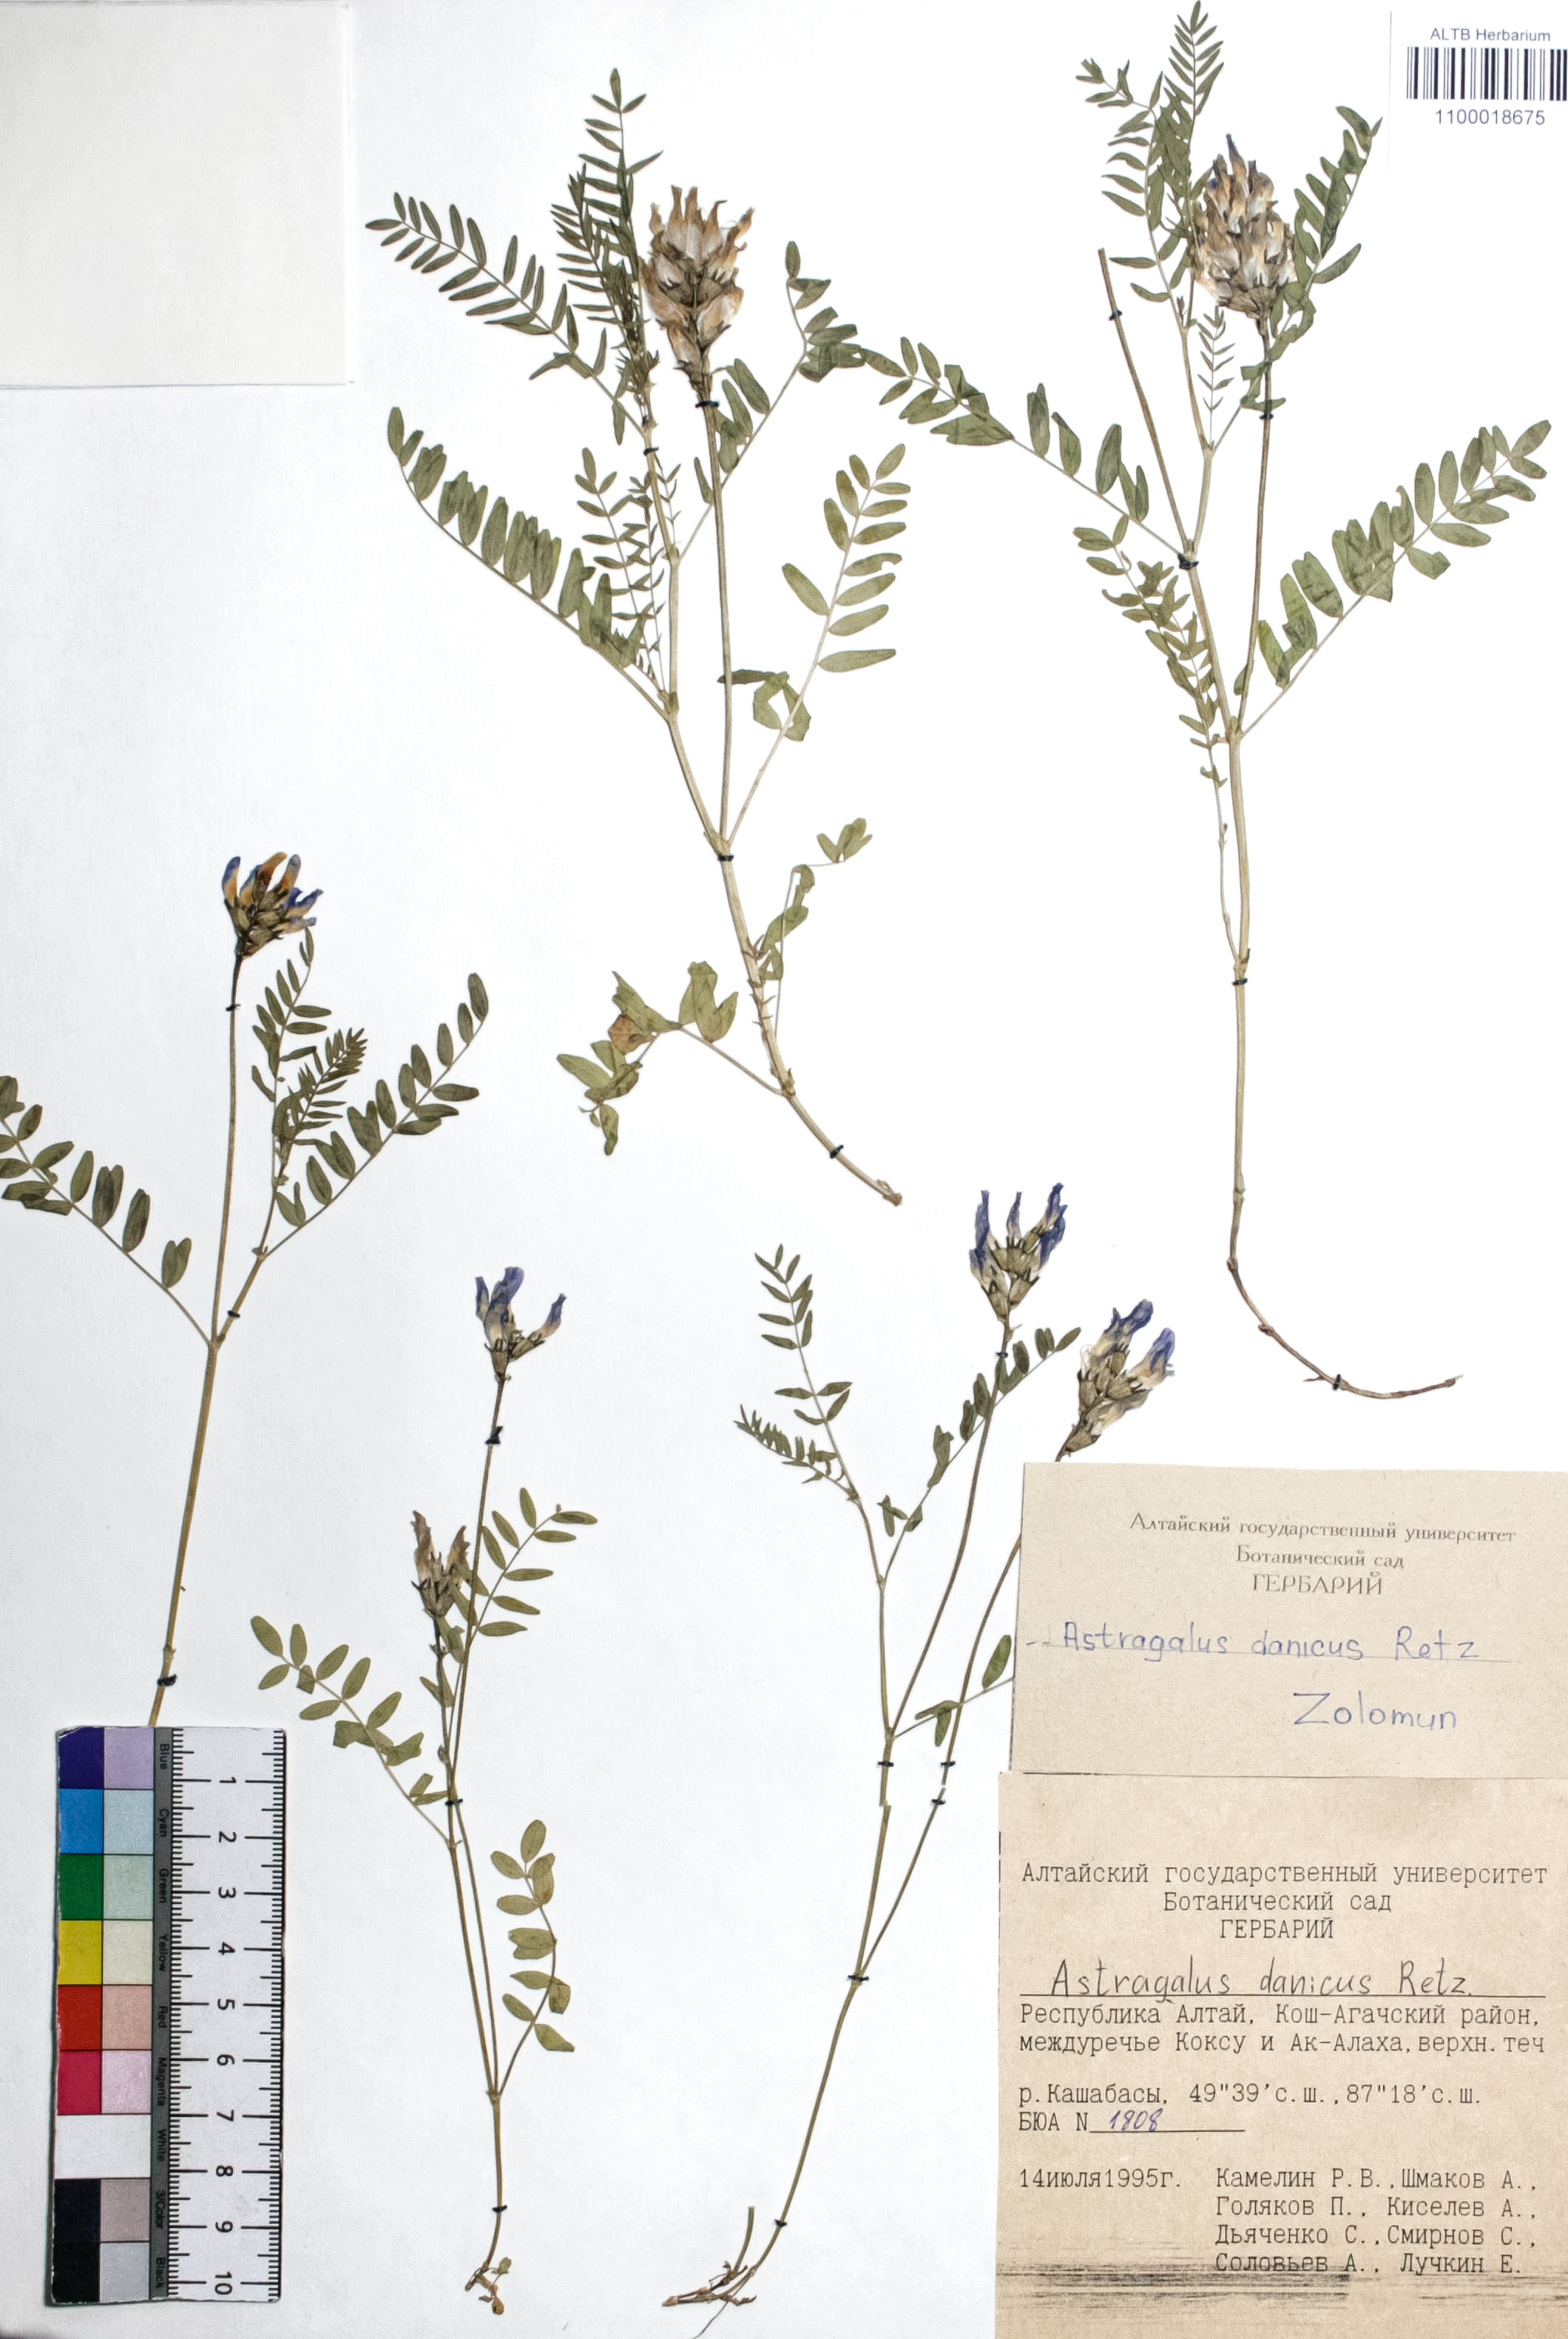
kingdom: Plantae
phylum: Tracheophyta
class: Magnoliopsida
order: Fabales
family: Fabaceae
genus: Astragalus
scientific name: Astragalus danicus
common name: Purple milk-vetch
